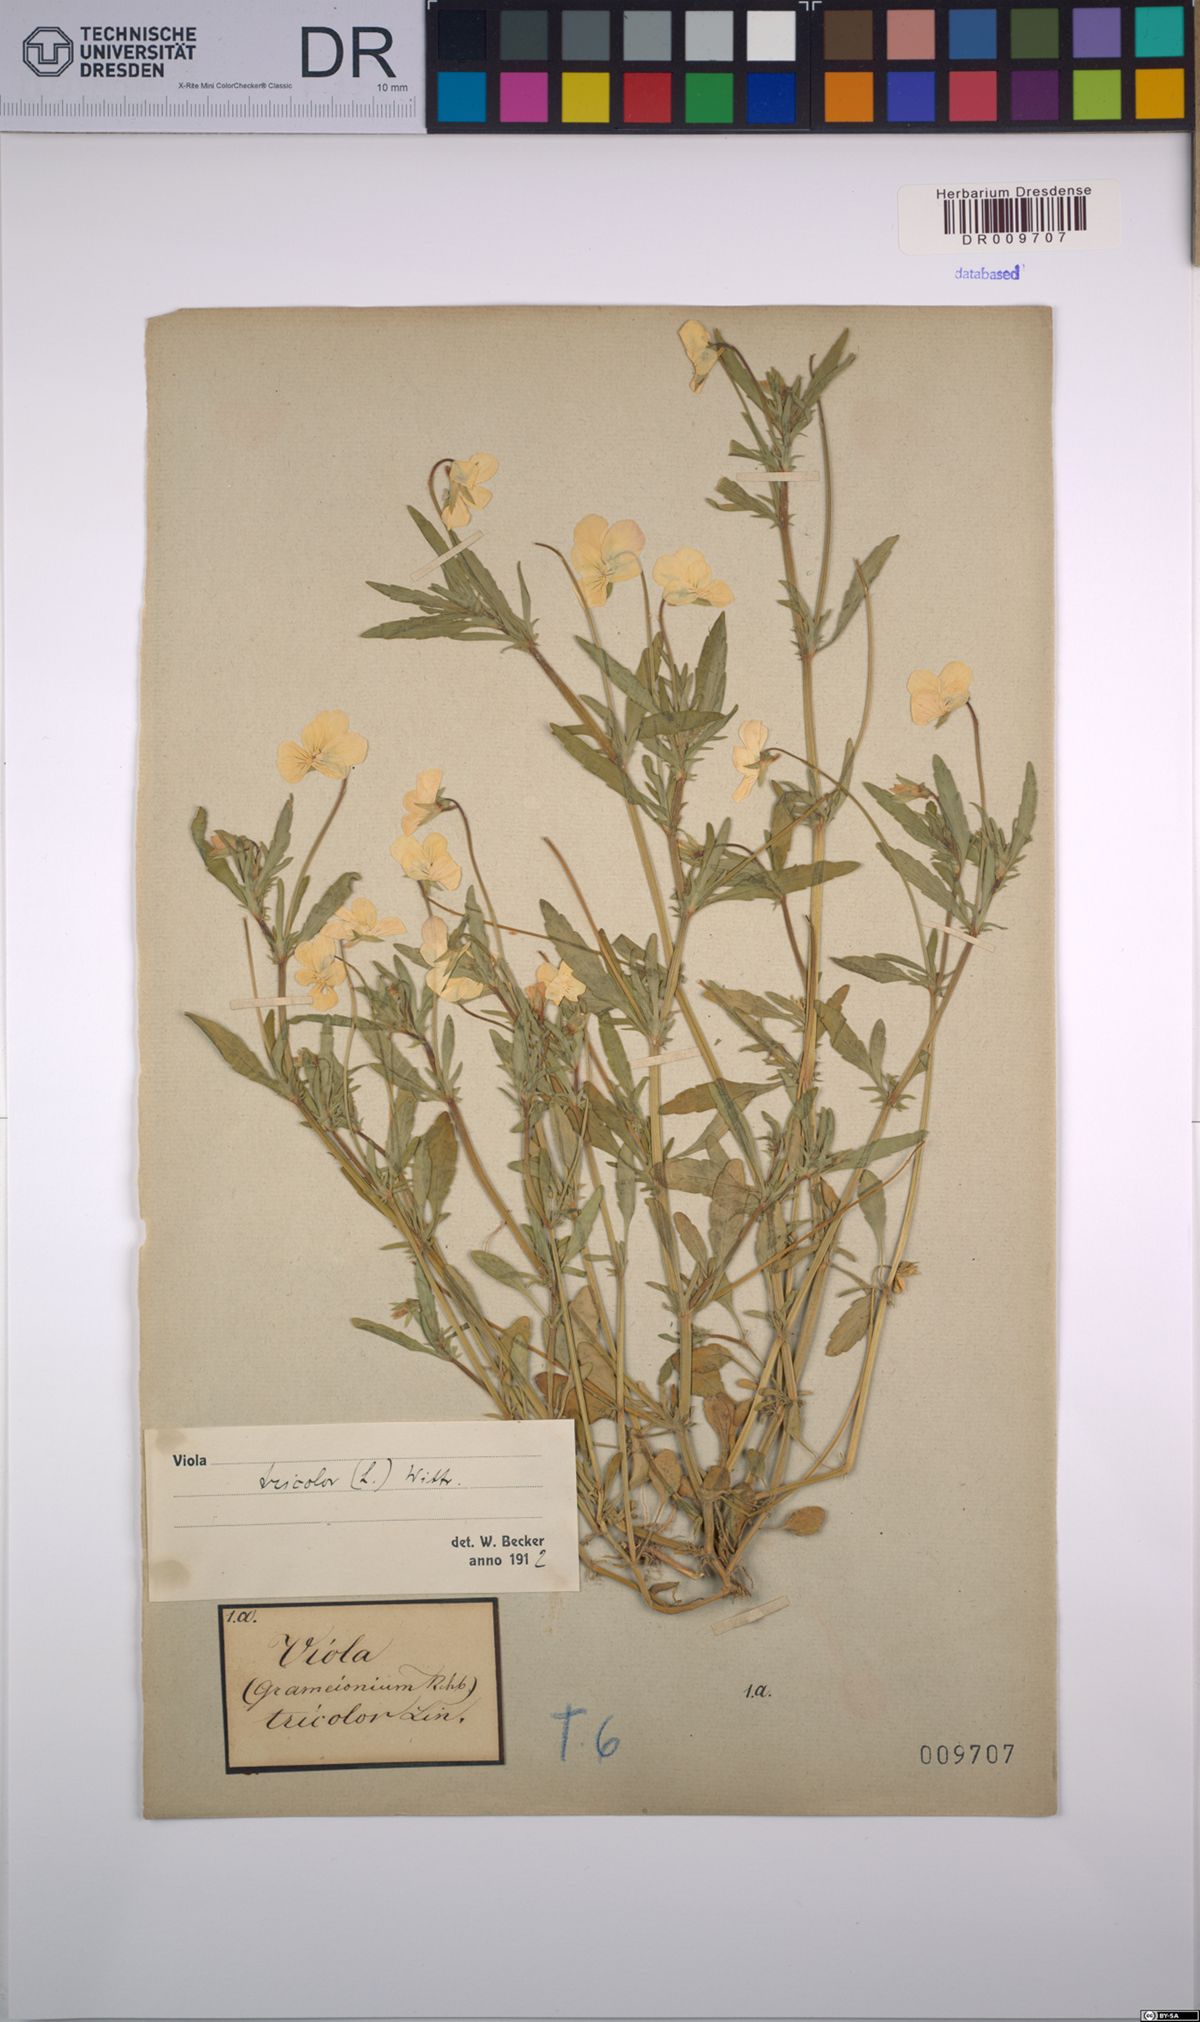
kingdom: Plantae
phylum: Tracheophyta
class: Magnoliopsida
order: Malpighiales
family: Violaceae
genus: Viola
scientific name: Viola tricolor
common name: Pansy
